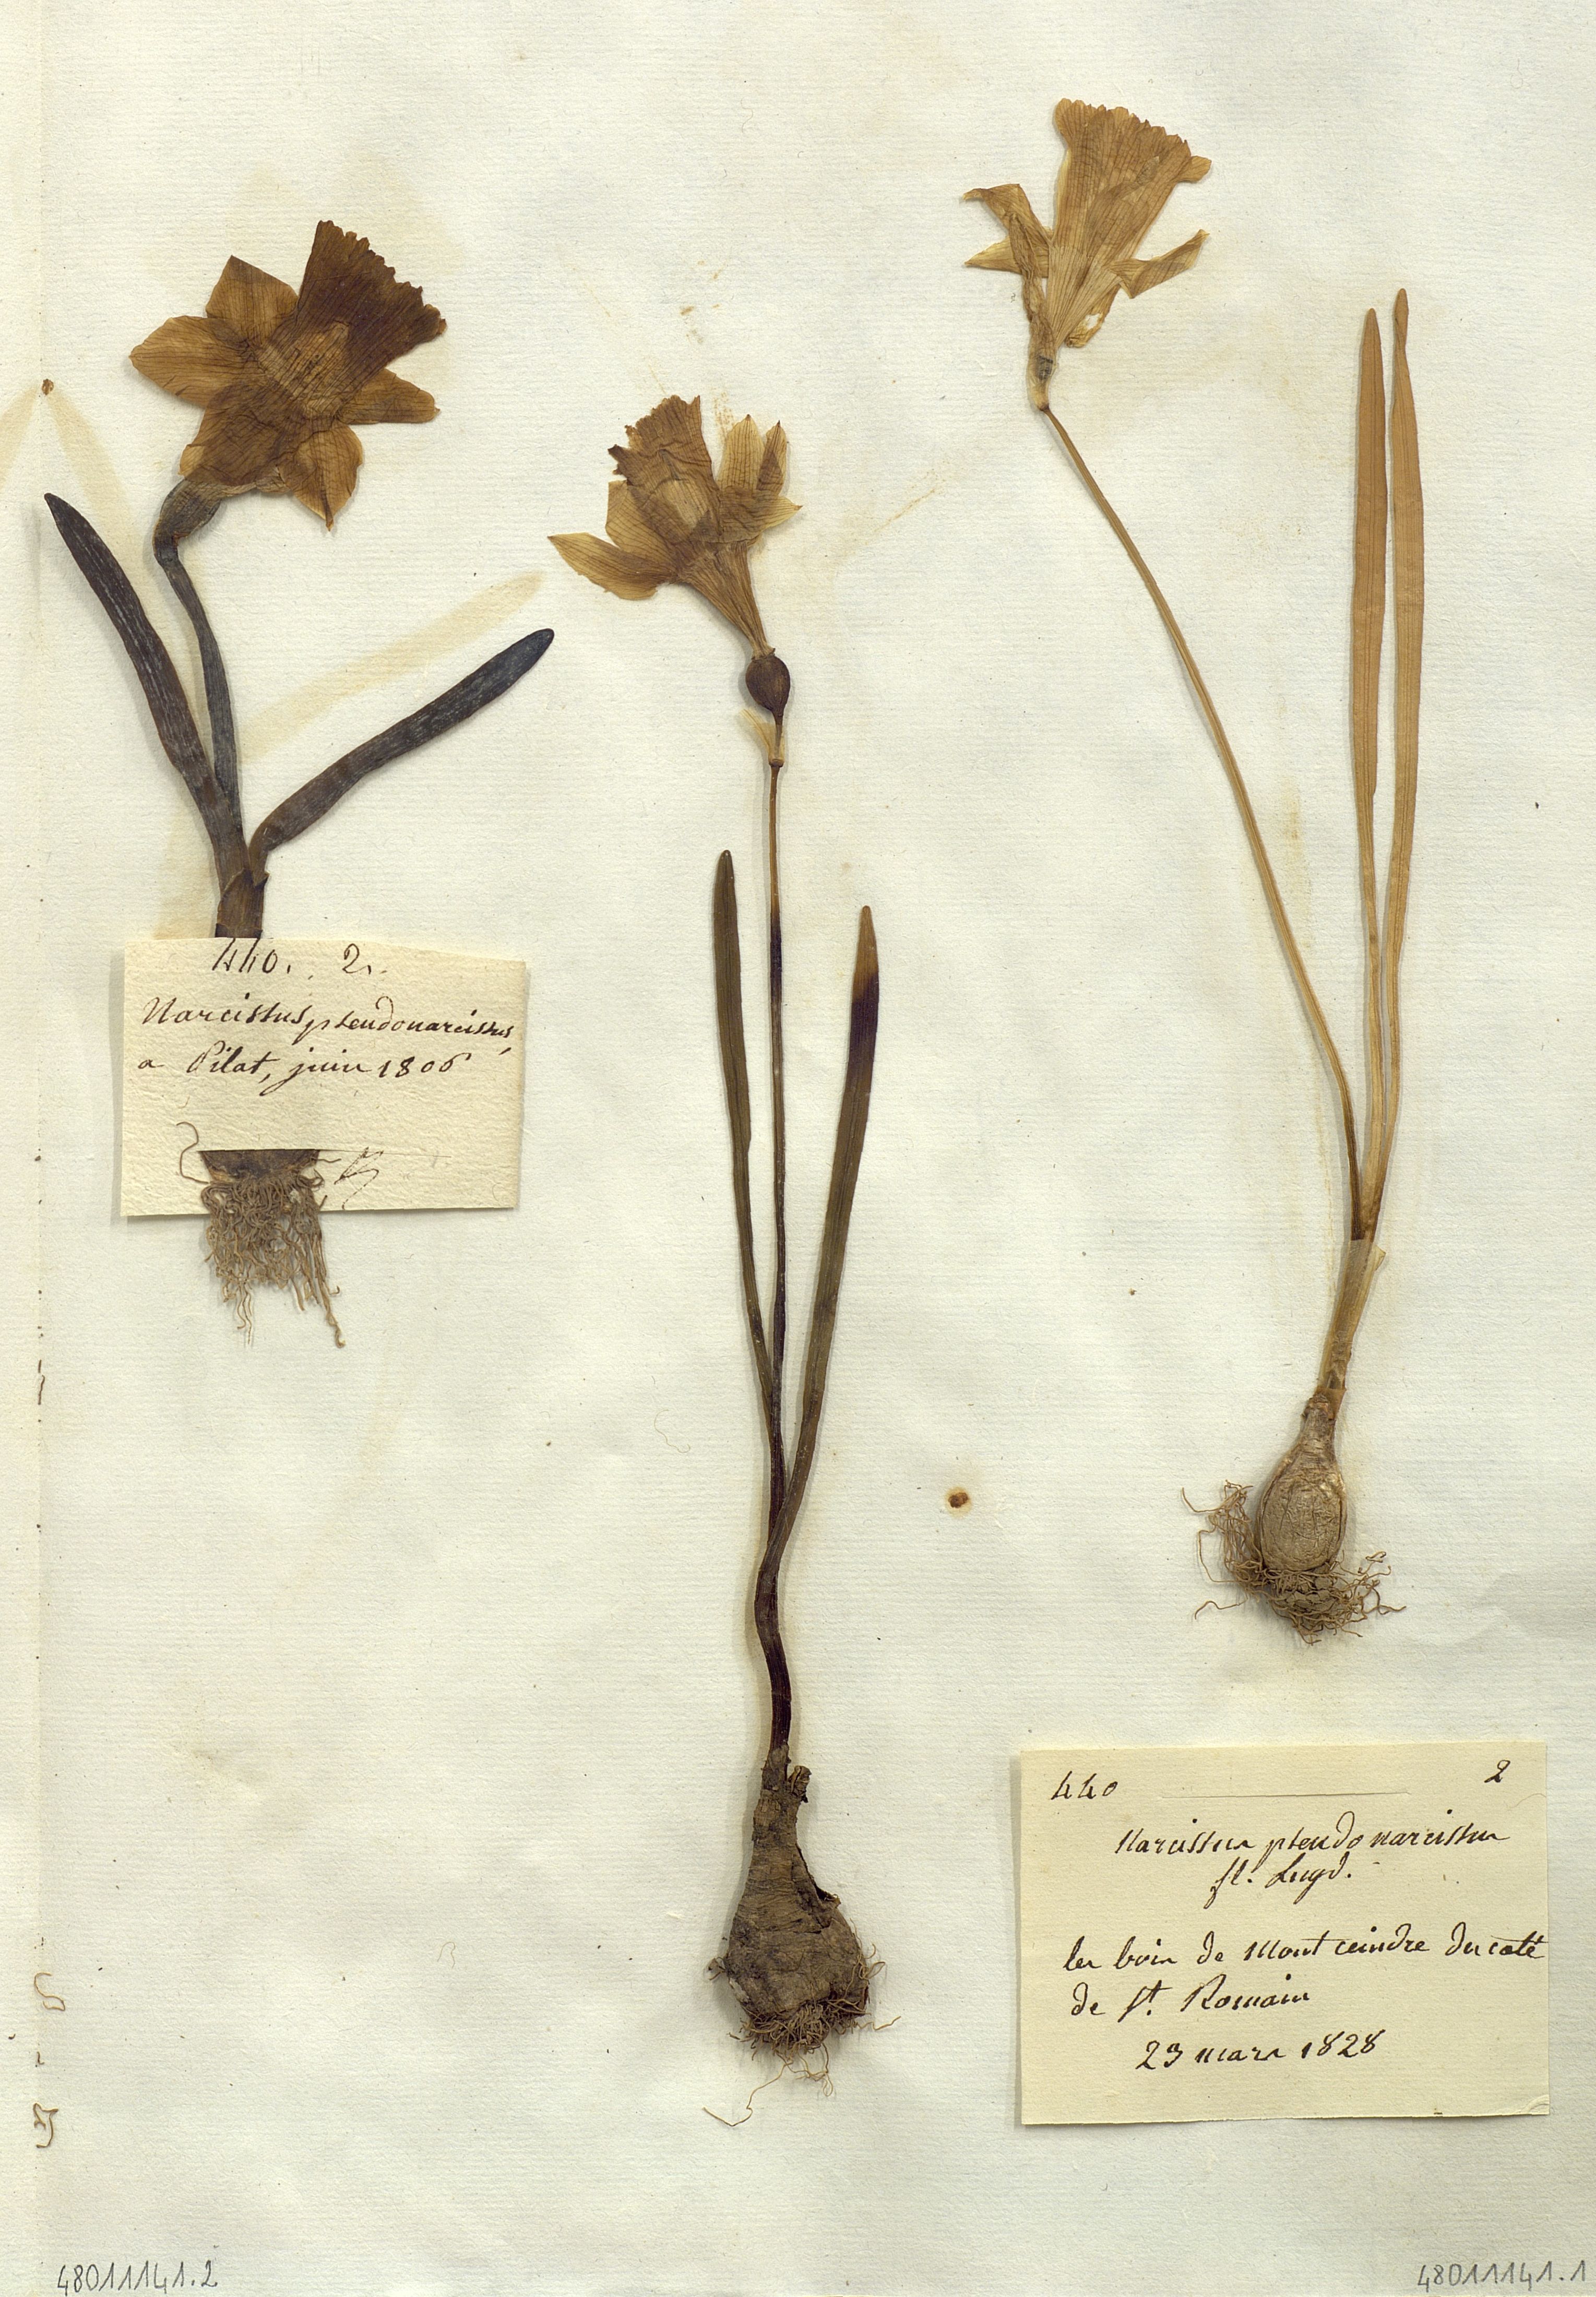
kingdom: Plantae
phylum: Tracheophyta
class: Liliopsida
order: Asparagales
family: Iridaceae
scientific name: Iridaceae
